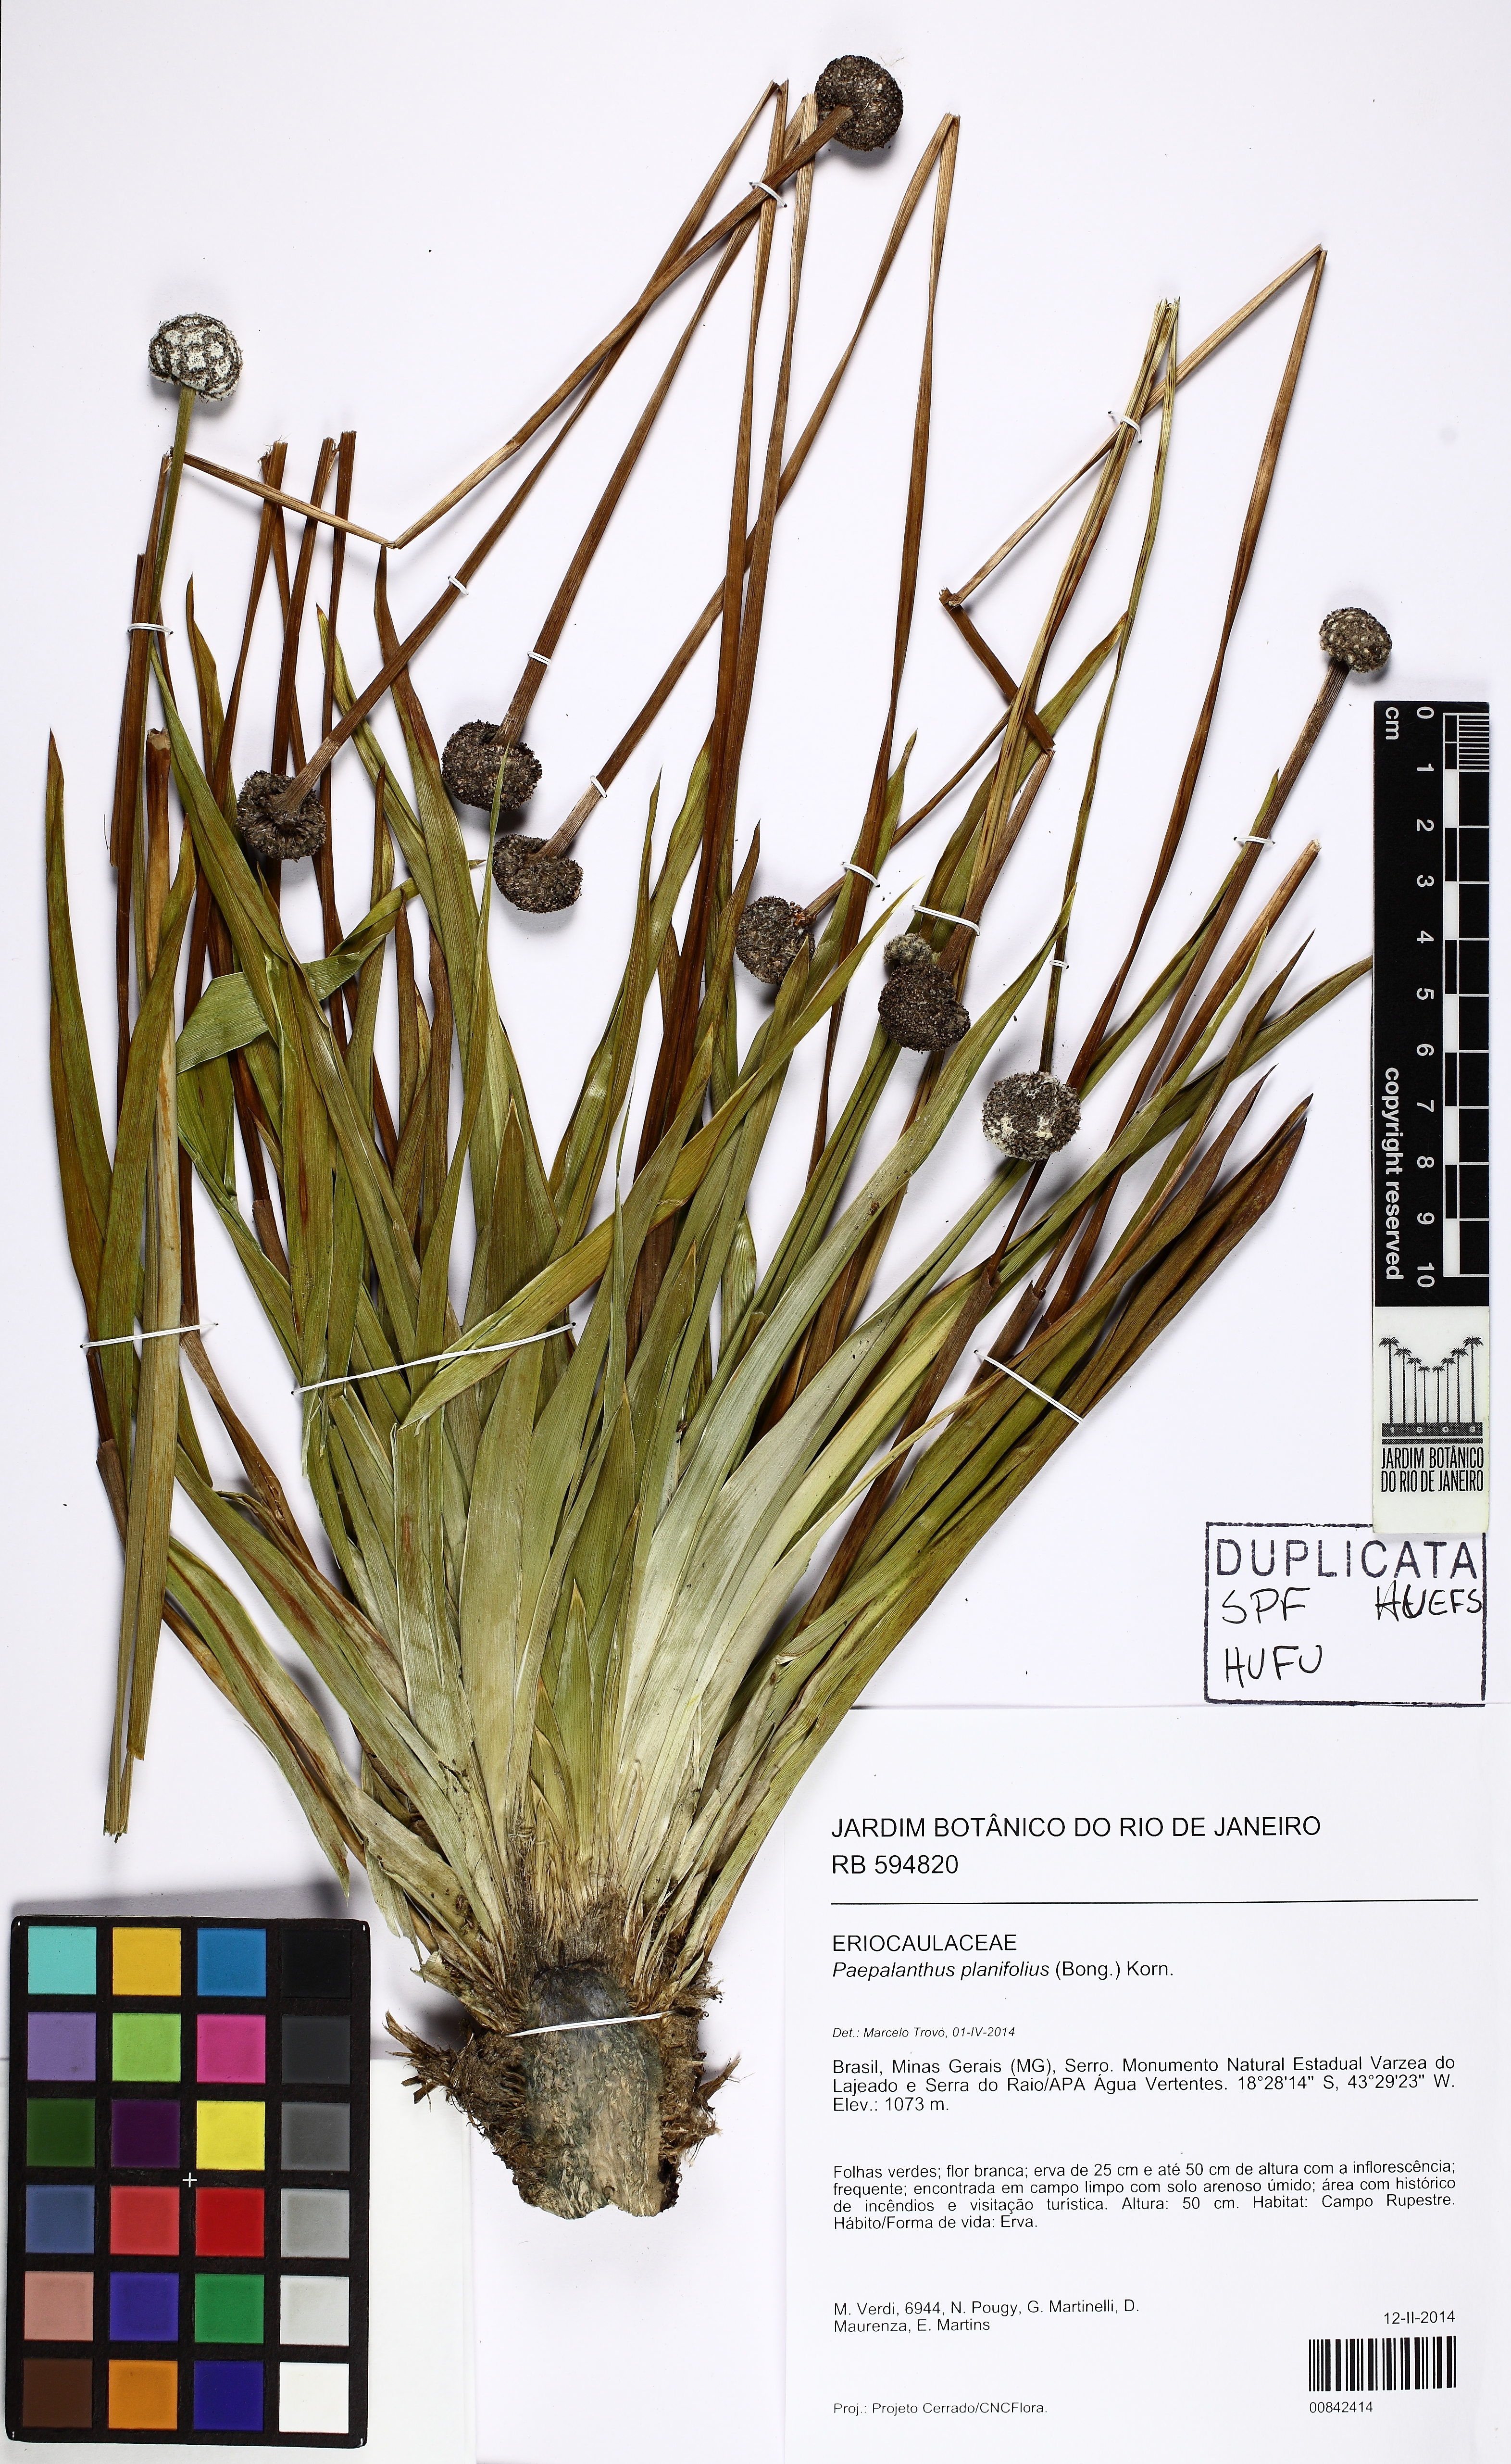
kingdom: Plantae
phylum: Tracheophyta
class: Liliopsida
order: Poales
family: Eriocaulaceae
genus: Paepalanthus
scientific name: Paepalanthus planifolius
